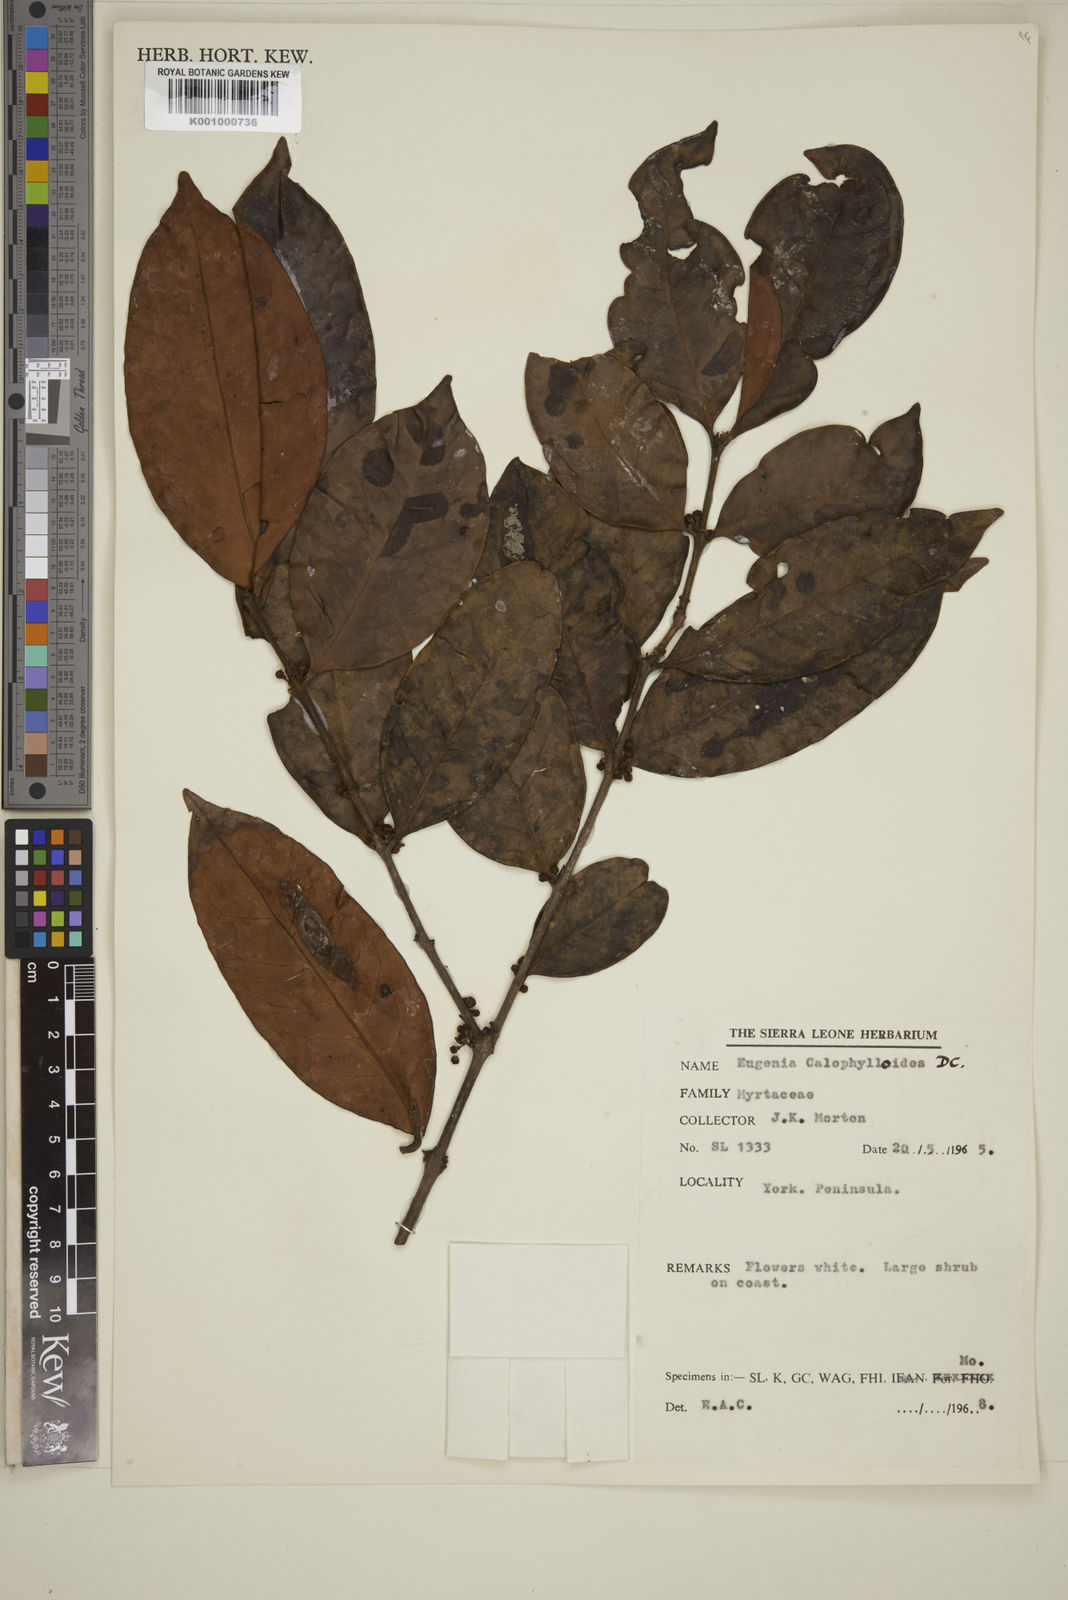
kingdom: Plantae
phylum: Tracheophyta
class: Magnoliopsida
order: Myrtales
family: Myrtaceae
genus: Eugenia
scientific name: Eugenia calophylloides
